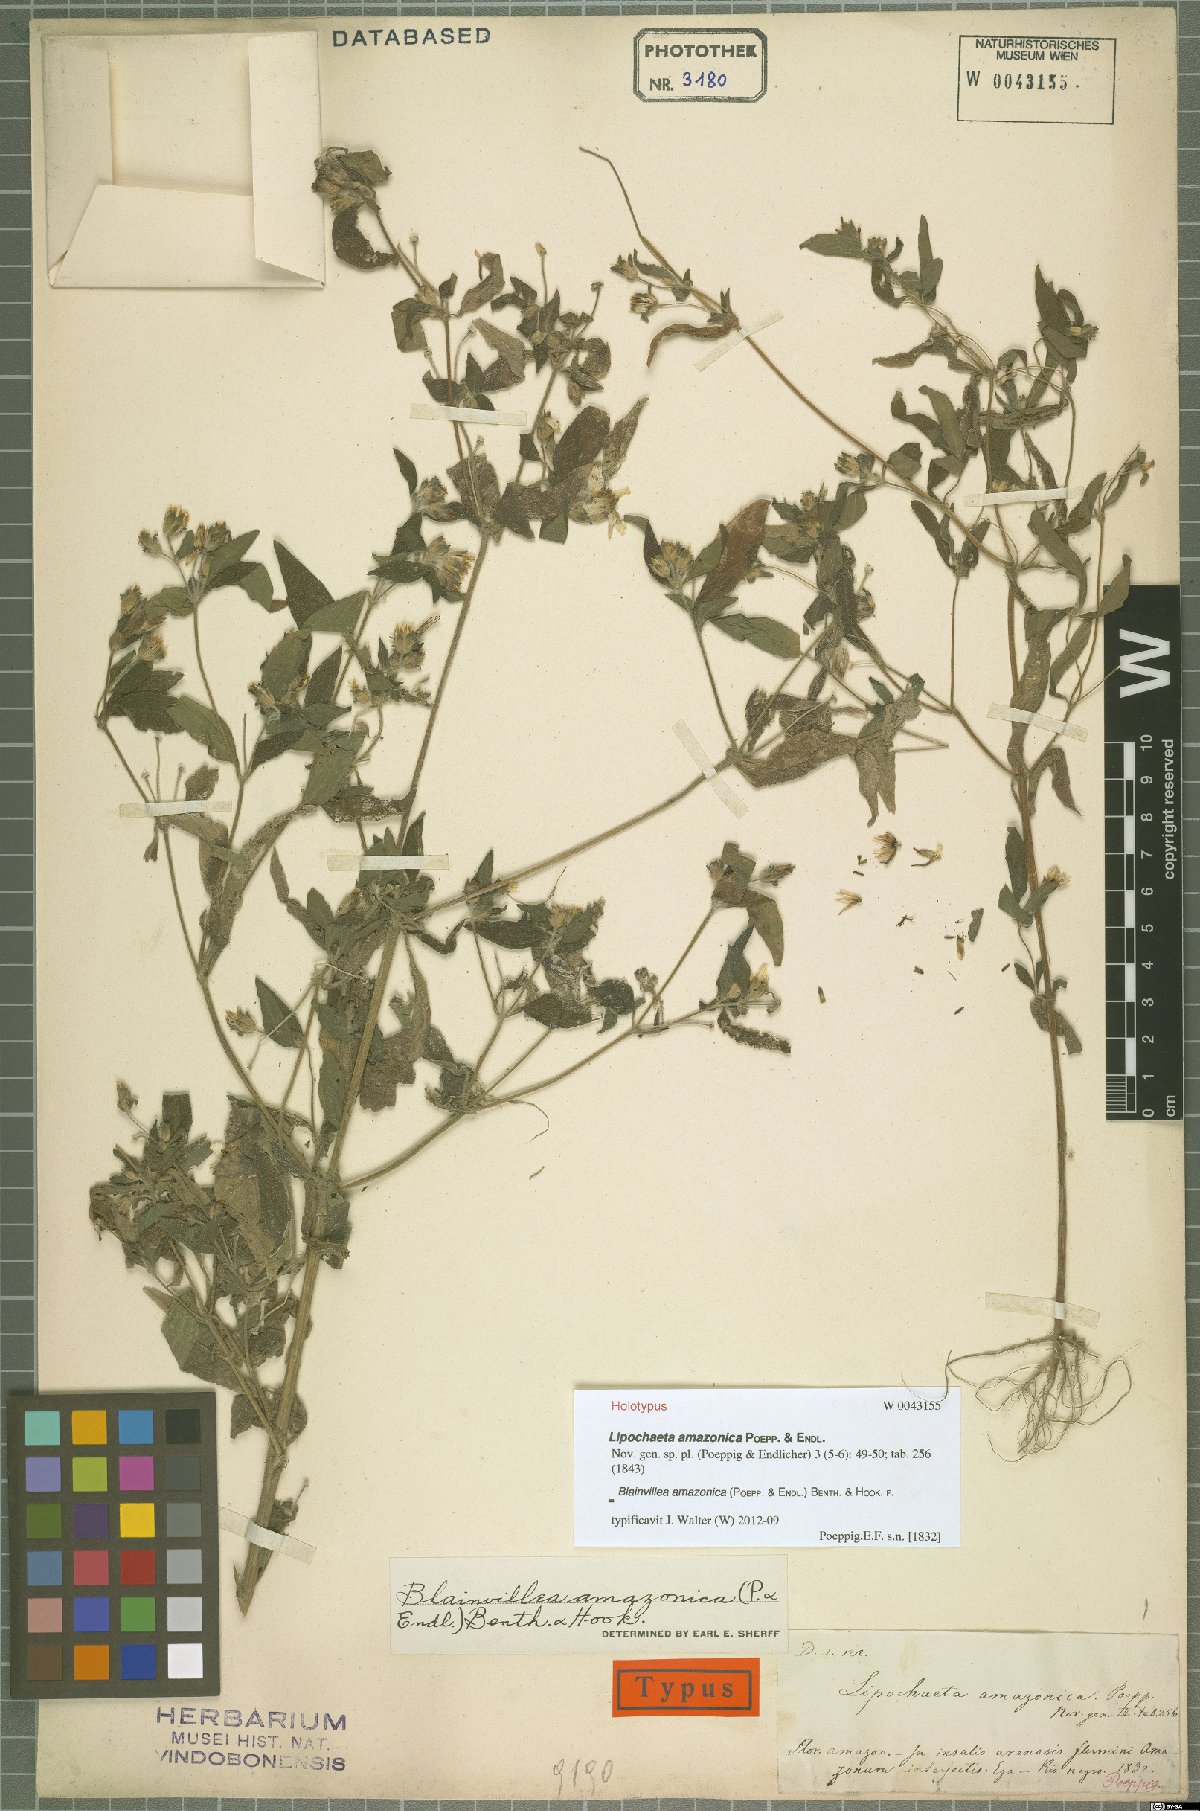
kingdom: Plantae
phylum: Tracheophyta
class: Magnoliopsida
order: Asterales
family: Asteraceae
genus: Blainvillea
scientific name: Blainvillea dichotoma
